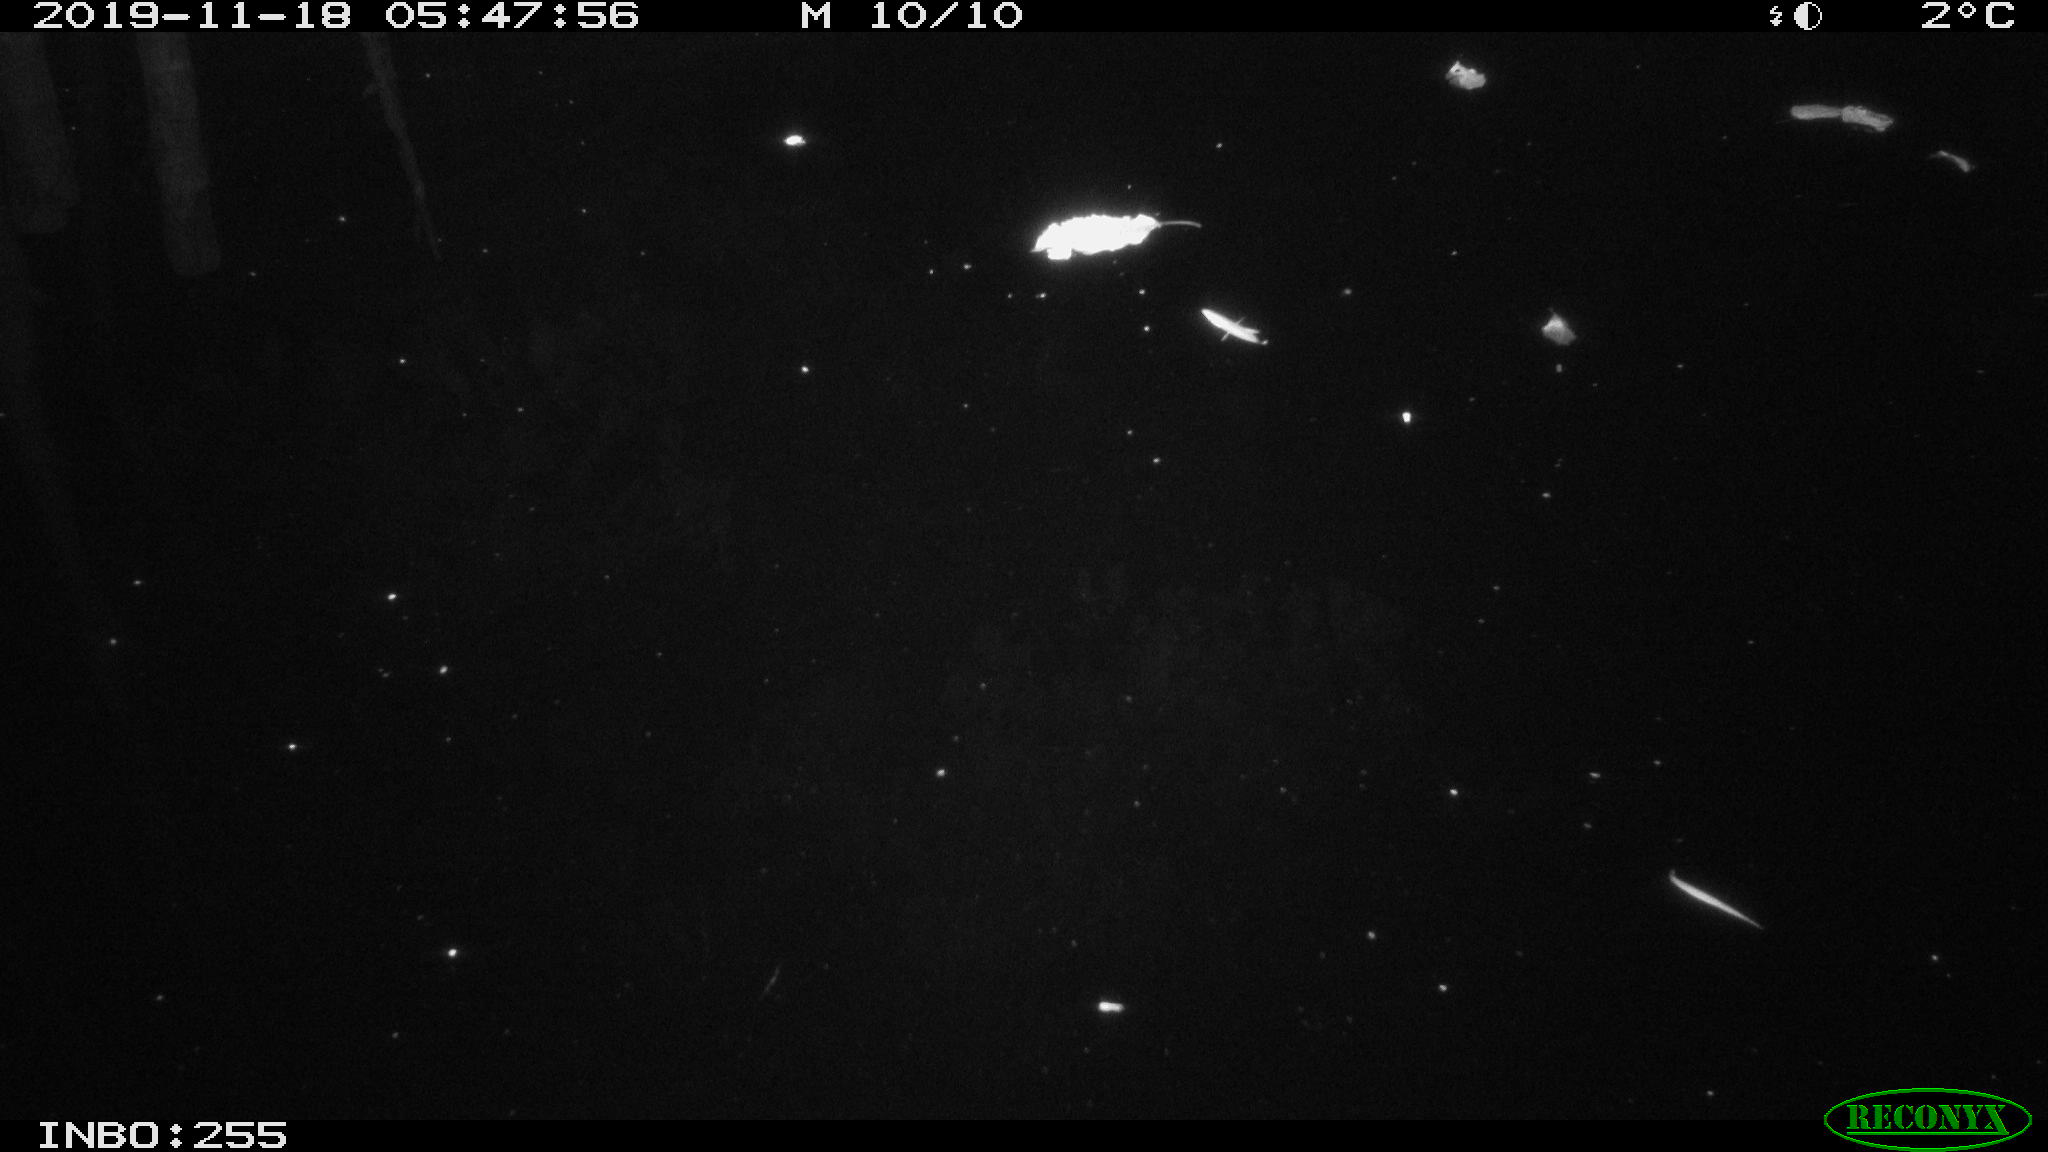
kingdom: Animalia
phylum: Chordata
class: Mammalia
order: Rodentia
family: Muridae
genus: Rattus
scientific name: Rattus norvegicus
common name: Brown rat
